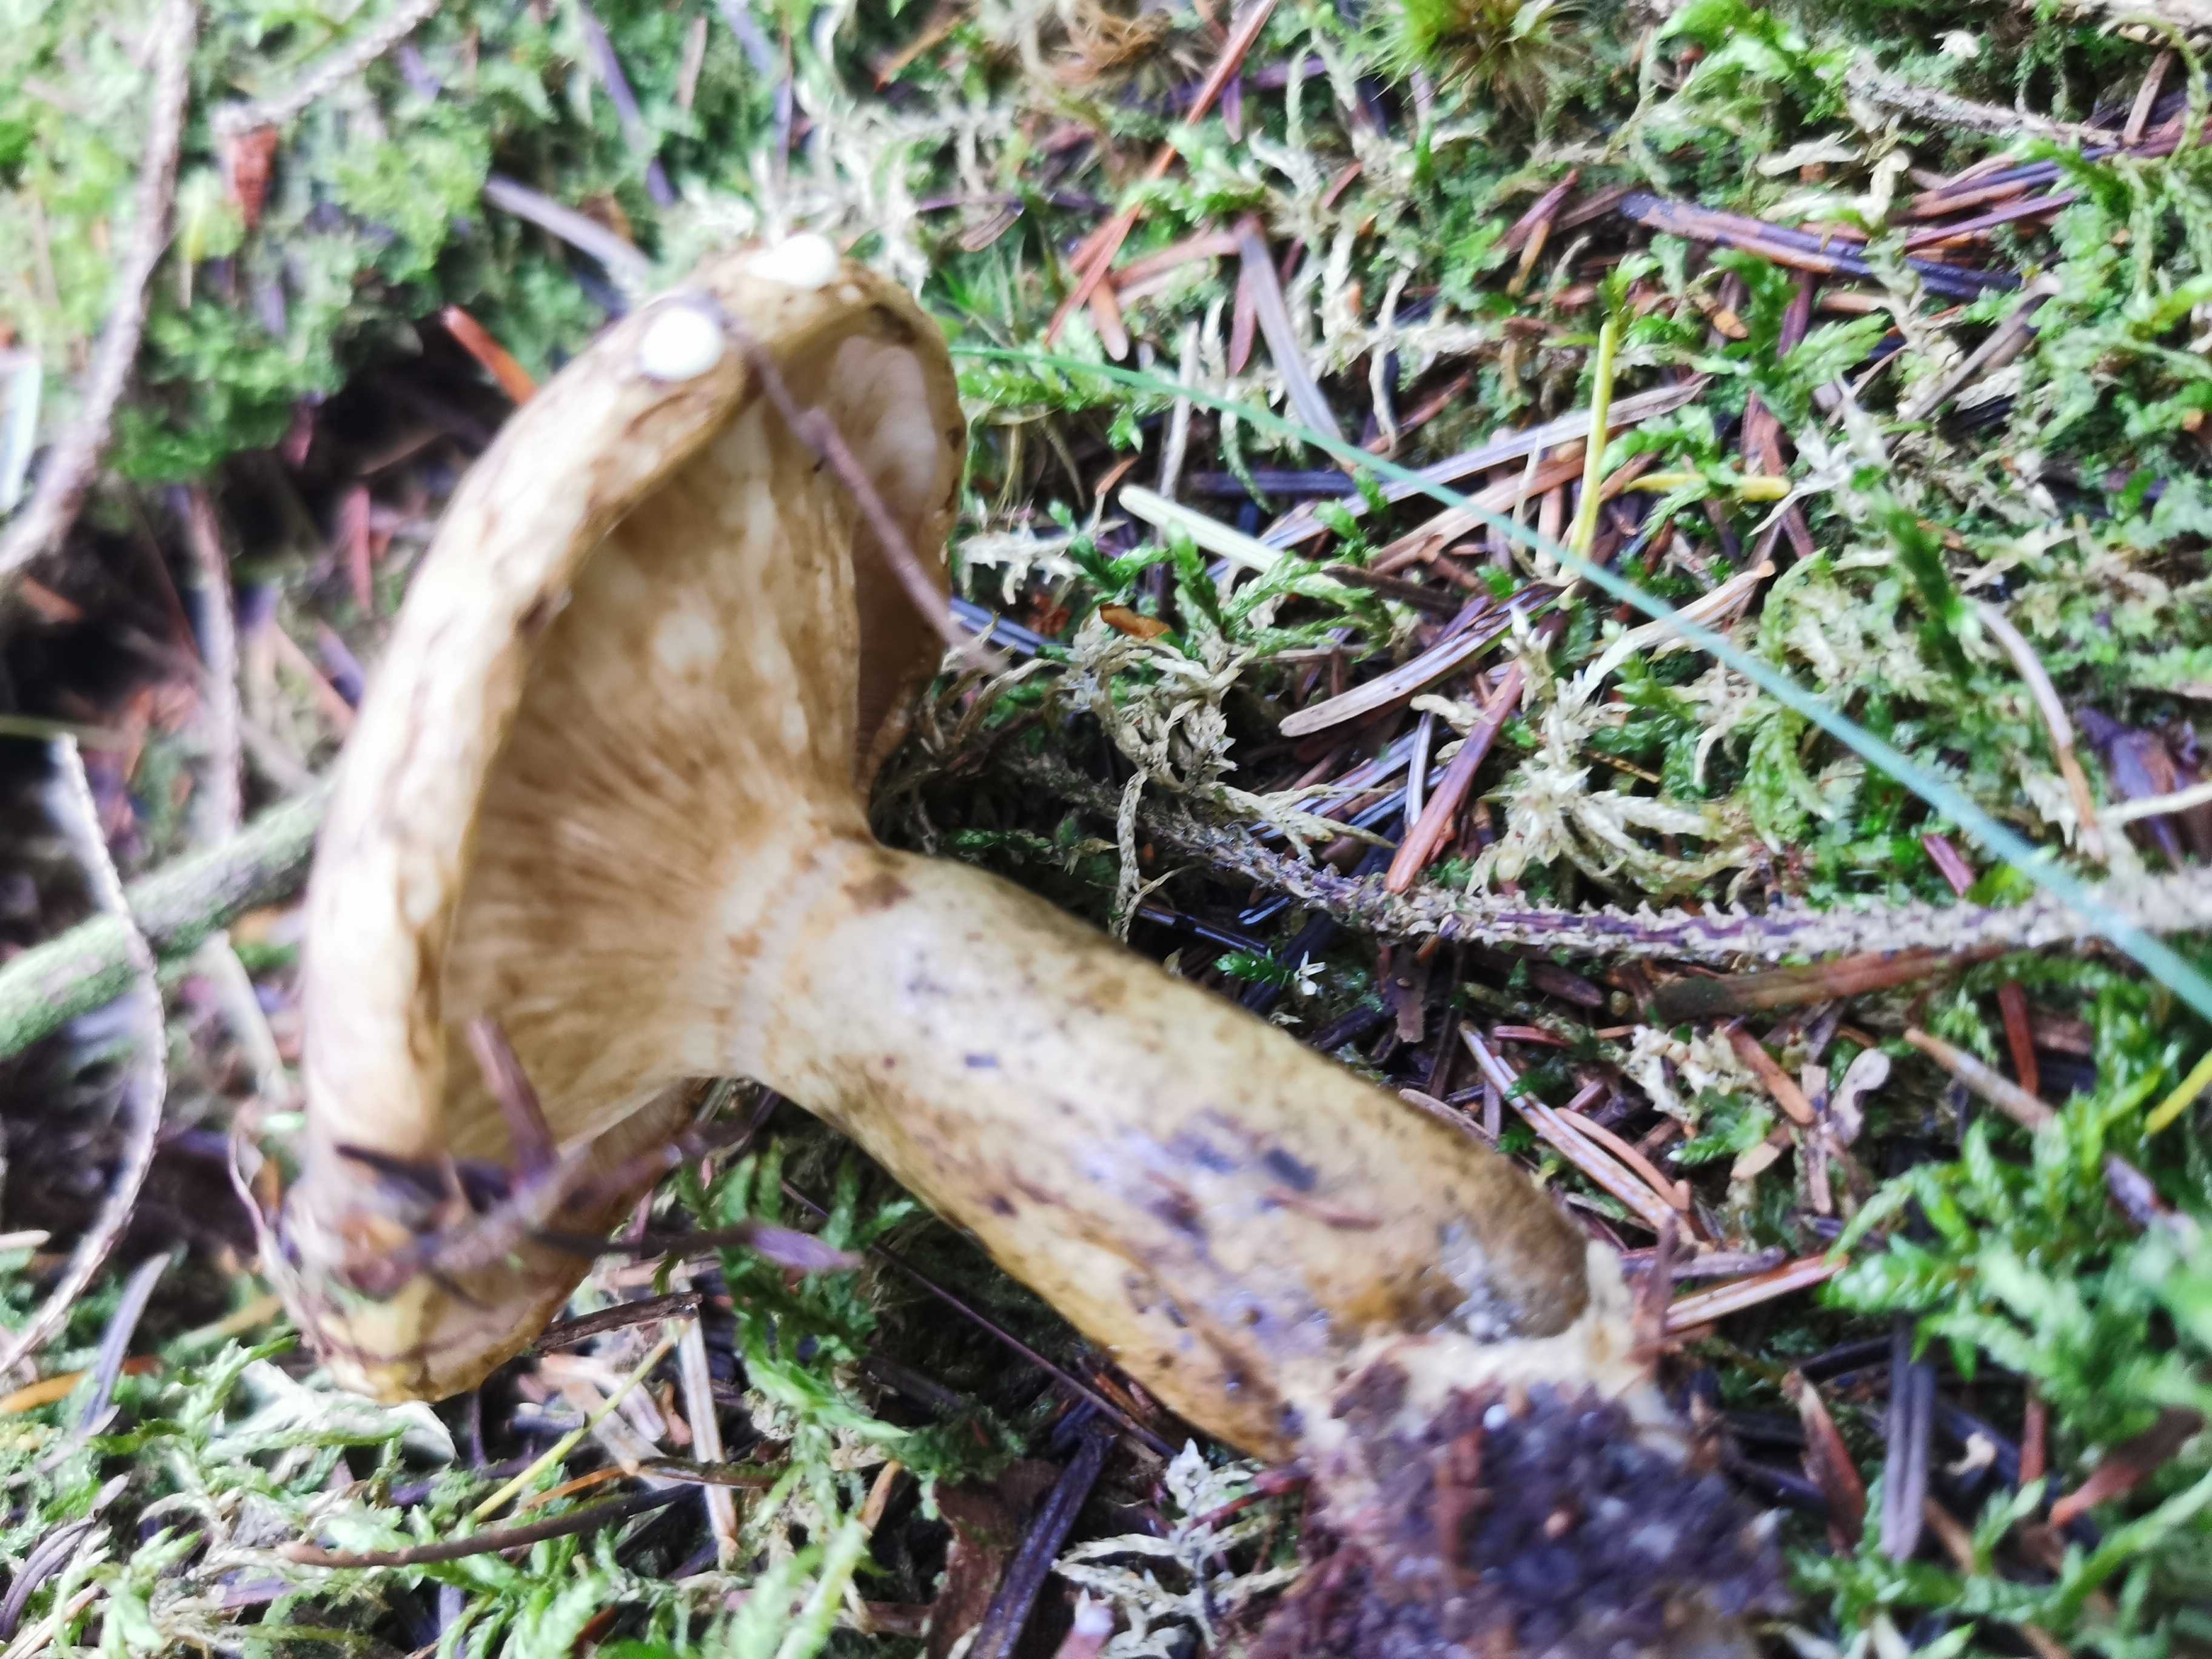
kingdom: Fungi
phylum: Basidiomycota
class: Agaricomycetes
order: Russulales
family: Russulaceae
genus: Lactarius
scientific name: Lactarius necator
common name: manddraber-mælkehat
